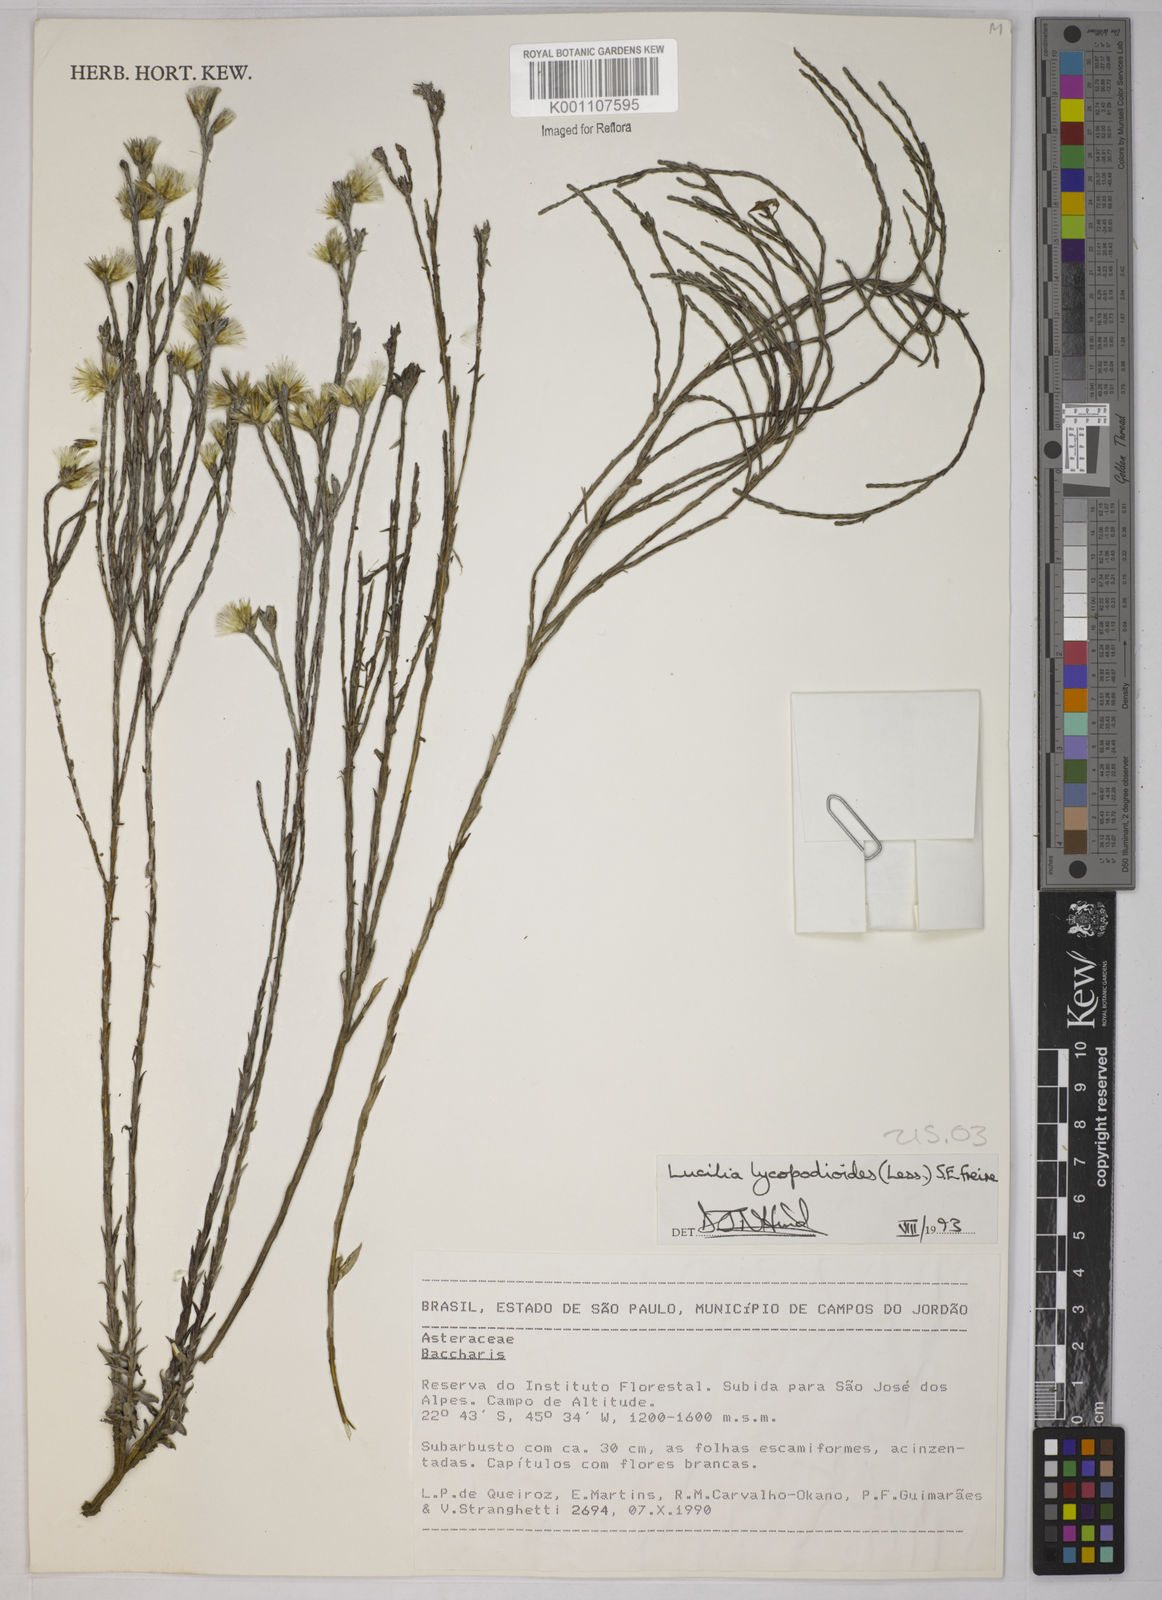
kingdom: Plantae
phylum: Tracheophyta
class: Magnoliopsida
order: Asterales
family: Asteraceae
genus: Lucilia
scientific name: Lucilia lycopodioides
